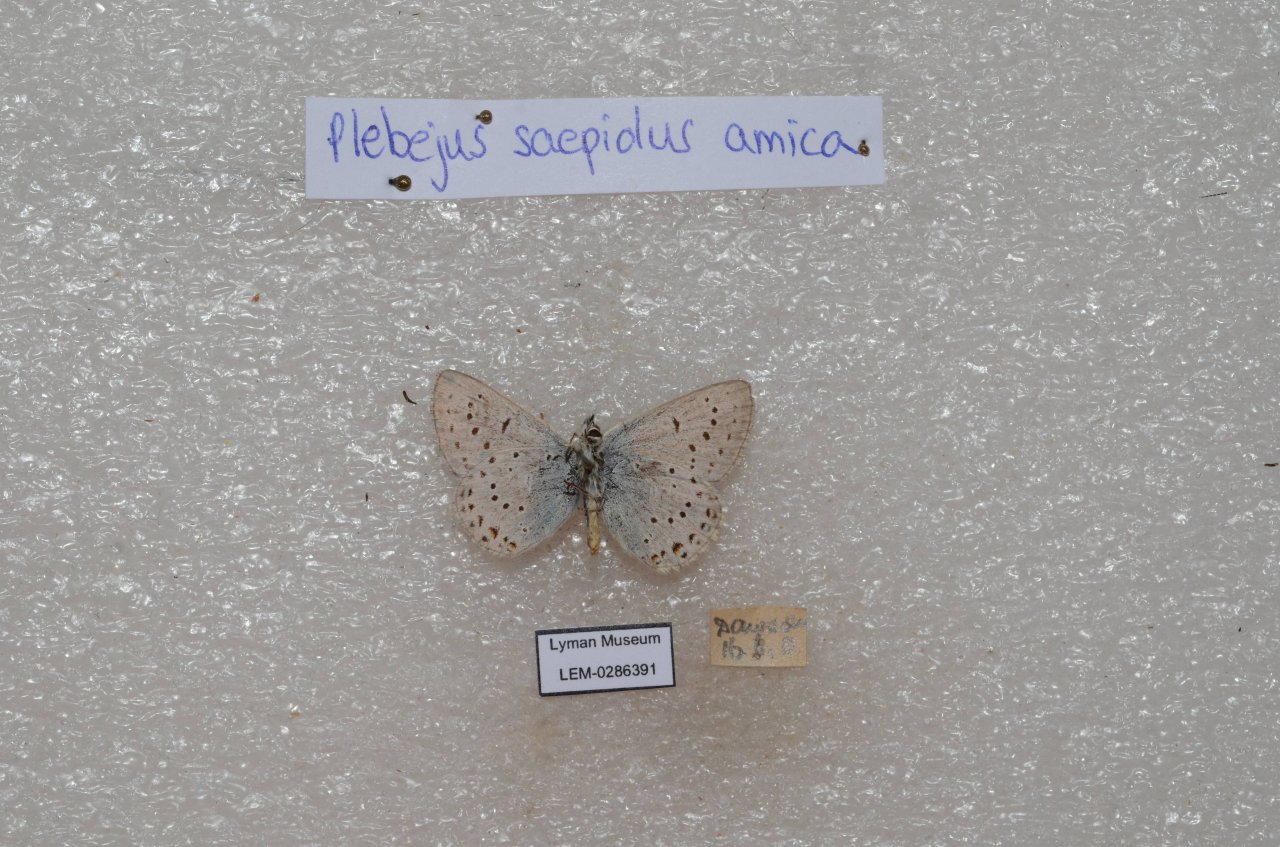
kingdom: Animalia
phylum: Arthropoda
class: Insecta
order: Lepidoptera
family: Lycaenidae
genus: Plebejus
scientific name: Plebejus saepiolus
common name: Greenish Blue
